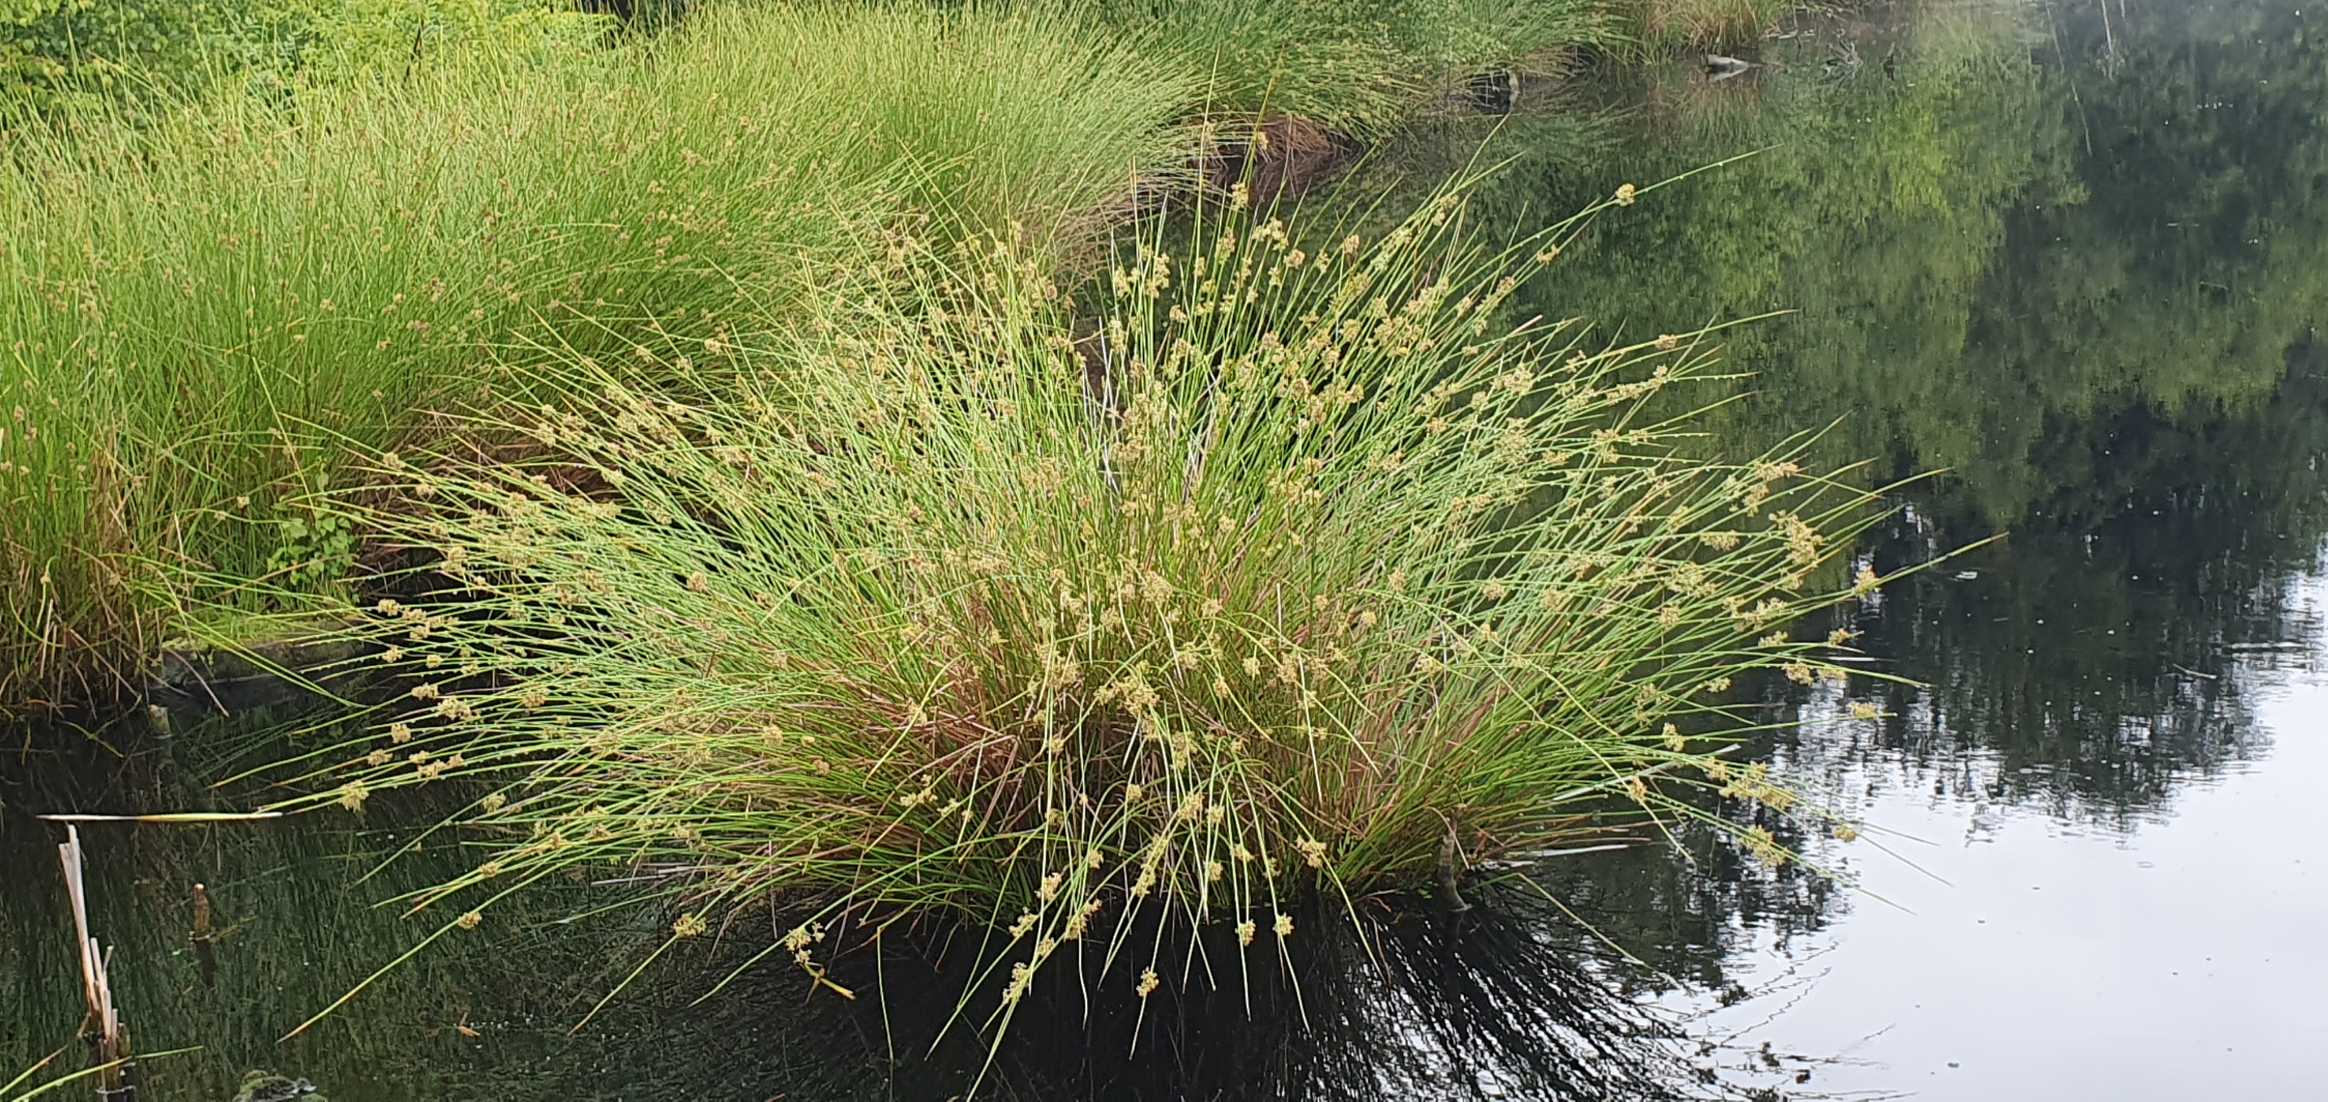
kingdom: Plantae
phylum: Tracheophyta
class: Liliopsida
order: Poales
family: Juncaceae
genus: Juncus
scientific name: Juncus effusus
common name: Lyse-siv
